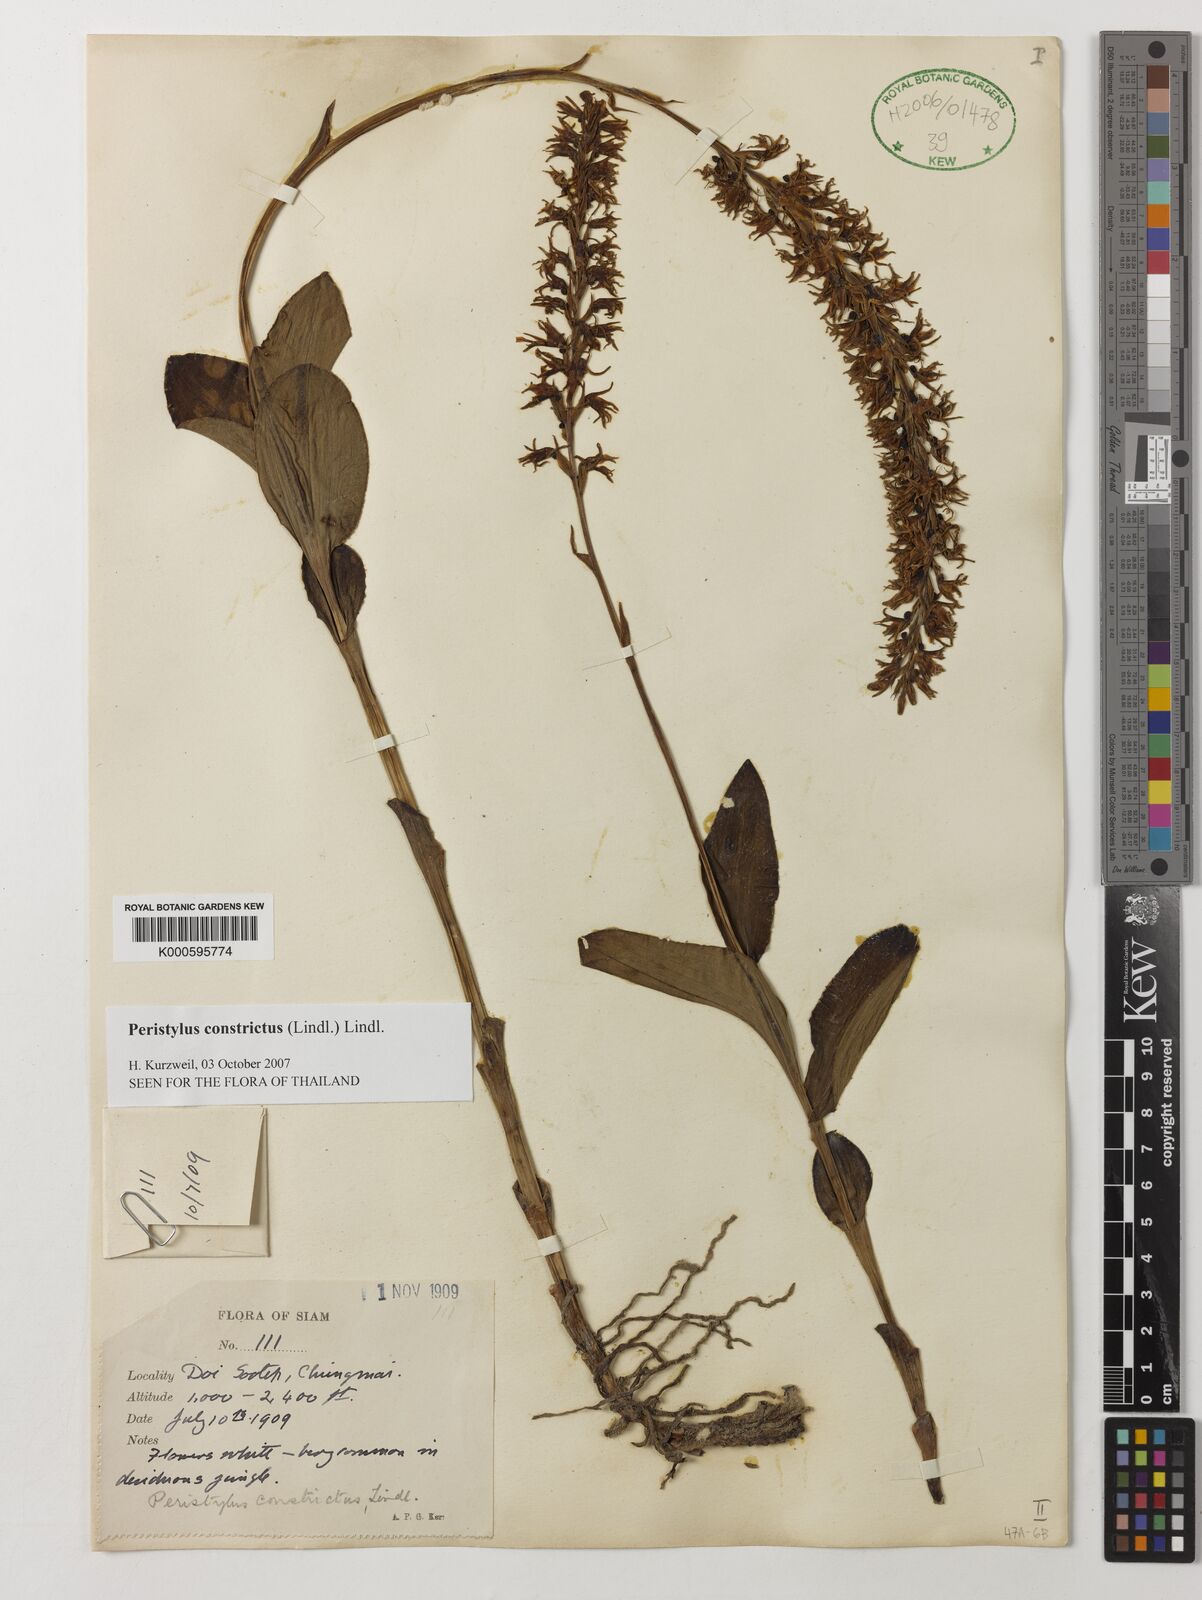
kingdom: Plantae
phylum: Tracheophyta
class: Liliopsida
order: Asparagales
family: Orchidaceae
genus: Peristylus
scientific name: Peristylus constrictus
